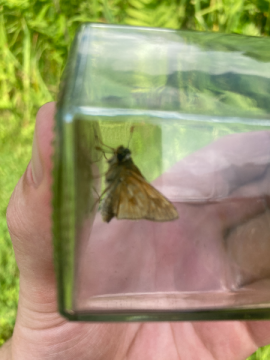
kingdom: Animalia
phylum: Arthropoda
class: Insecta
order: Lepidoptera
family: Hesperiidae
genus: Polites
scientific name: Polites
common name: Long Dash Skipper
